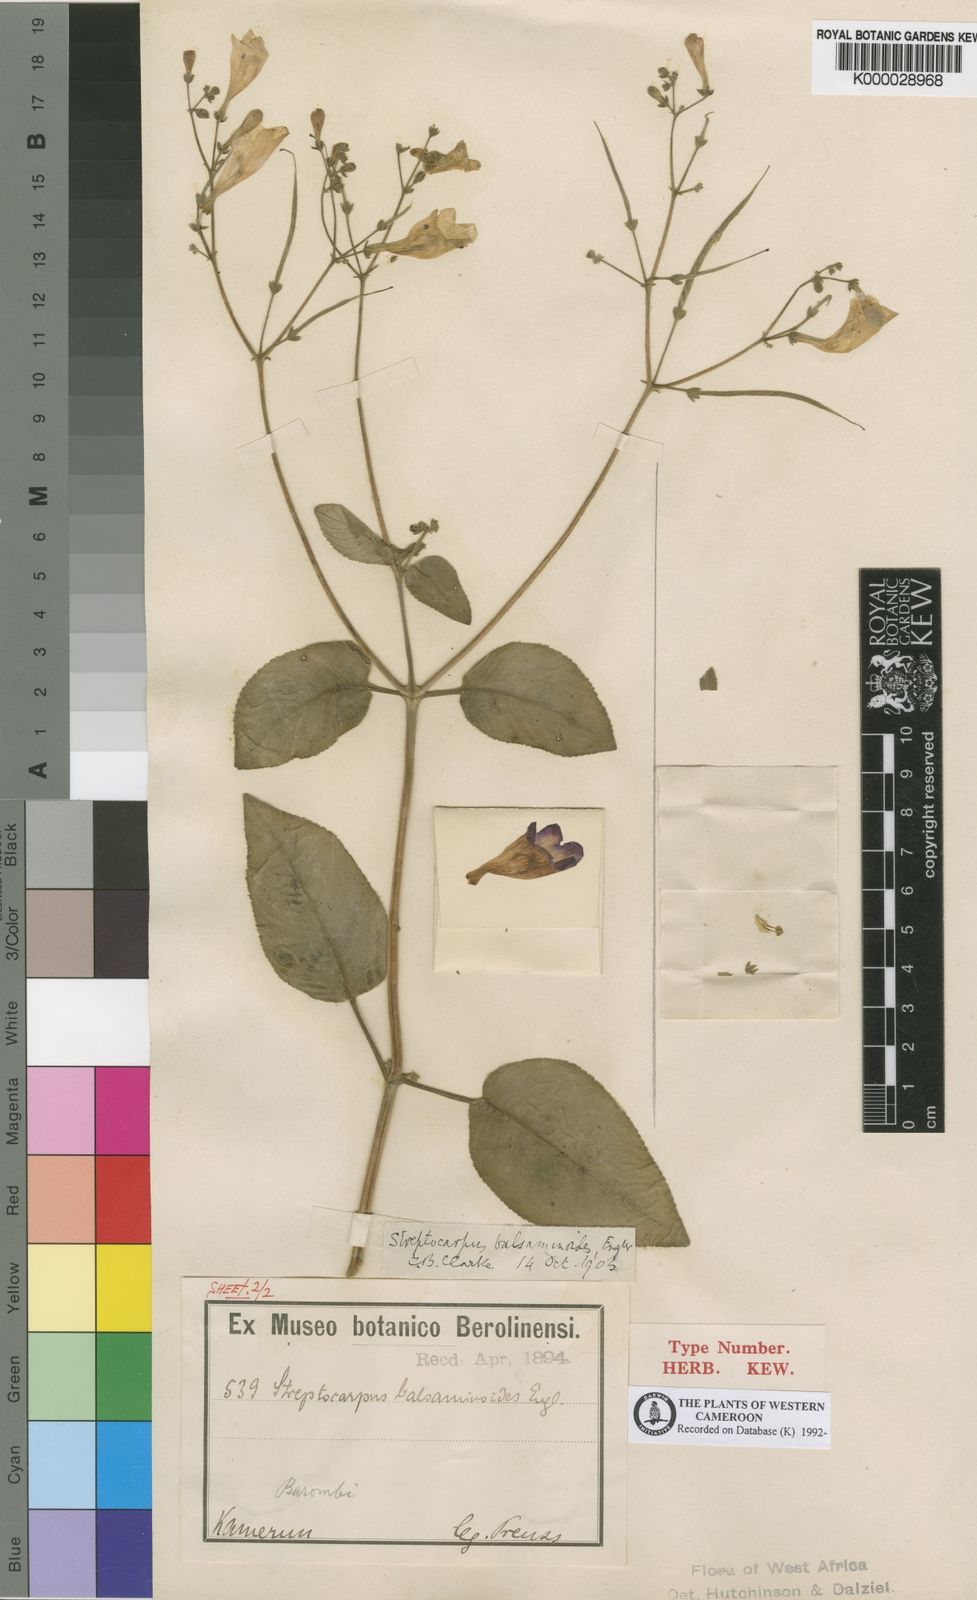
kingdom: Plantae
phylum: Tracheophyta
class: Magnoliopsida
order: Lamiales
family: Gesneriaceae
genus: Streptocarpus
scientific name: Streptocarpus nobilis
